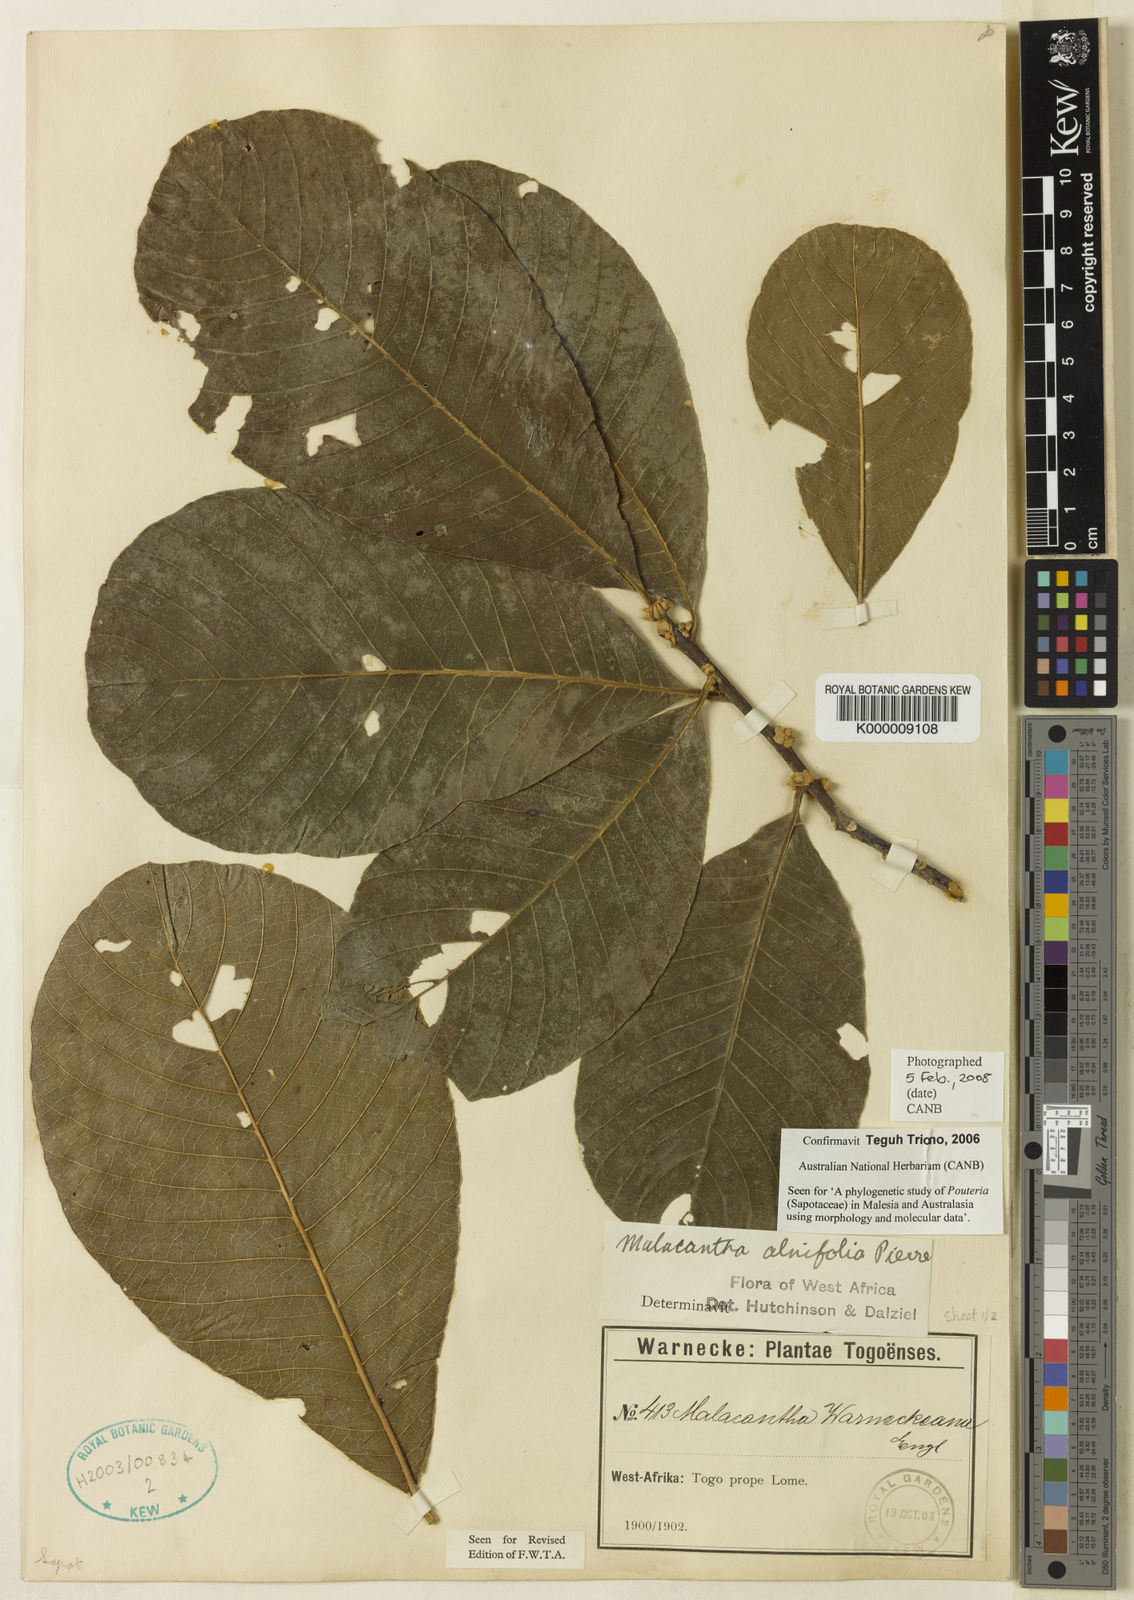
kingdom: Plantae
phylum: Tracheophyta
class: Magnoliopsida
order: Ericales
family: Sapotaceae
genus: Malacantha
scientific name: Malacantha alnifolia
